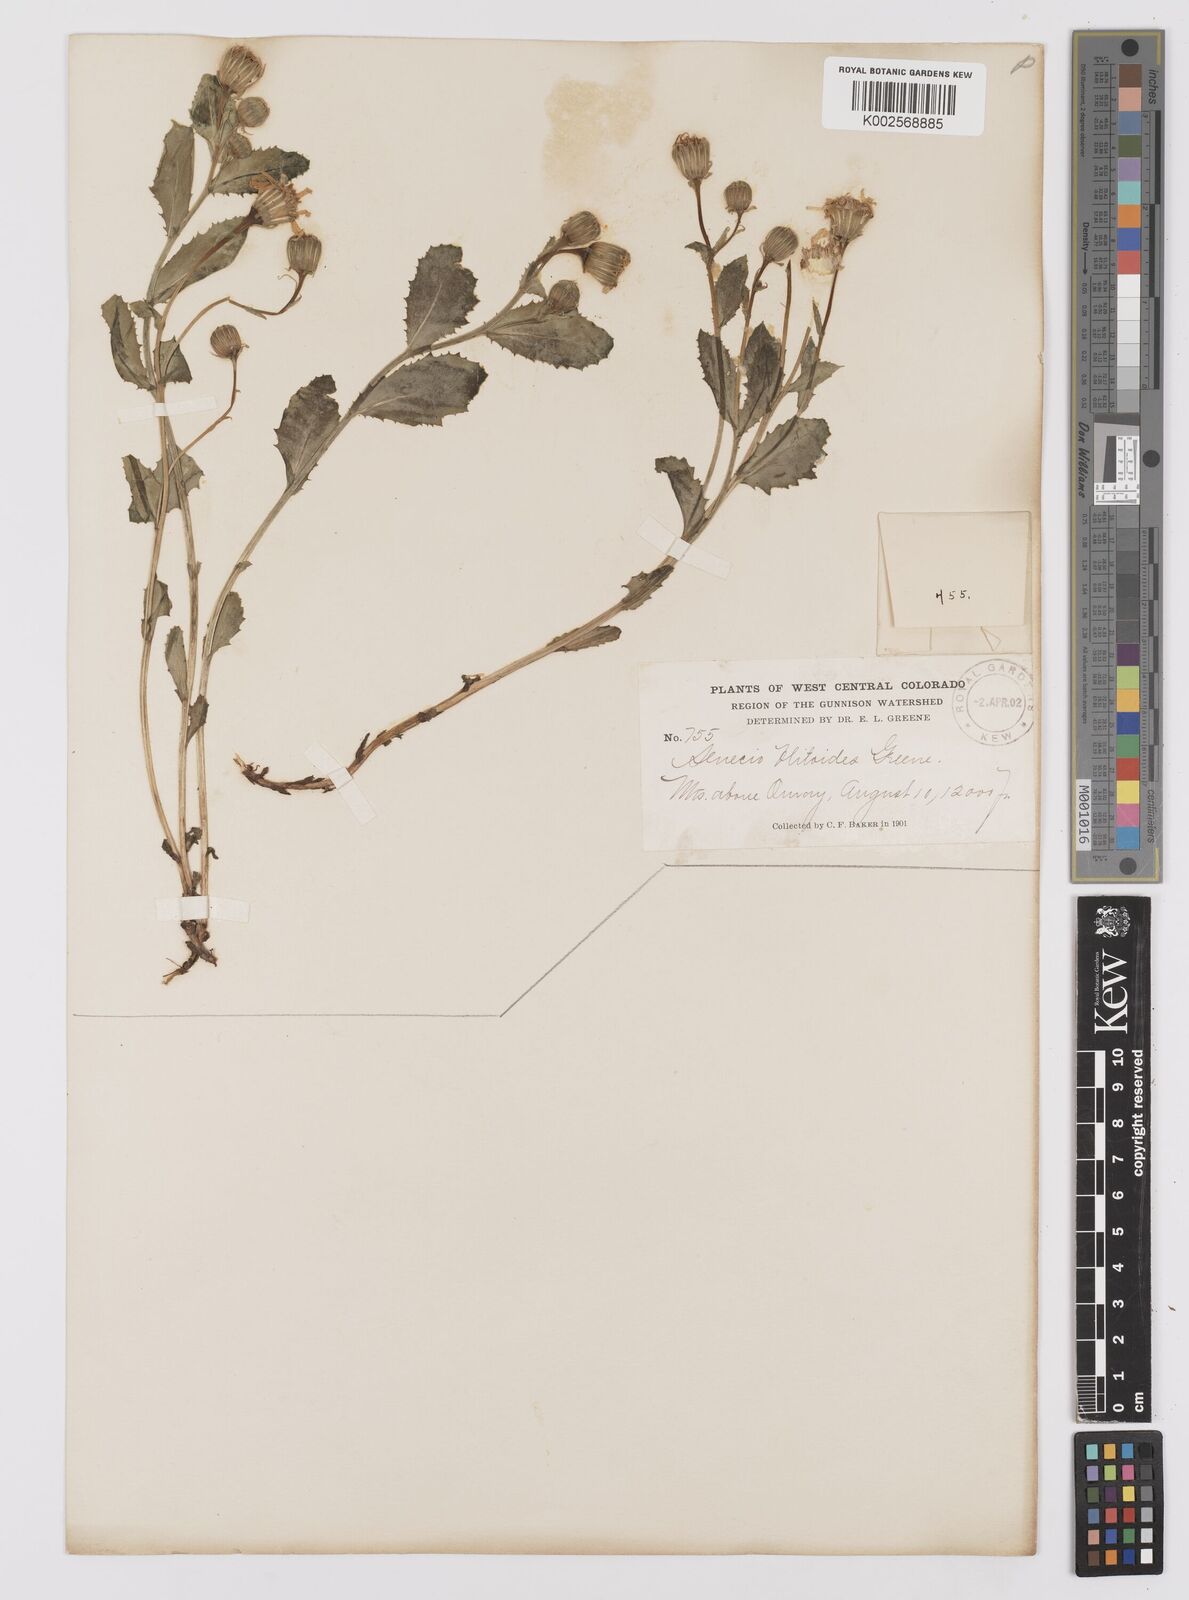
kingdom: Plantae
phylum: Tracheophyta
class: Magnoliopsida
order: Asterales
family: Asteraceae
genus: Senecio
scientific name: Senecio blitoides
